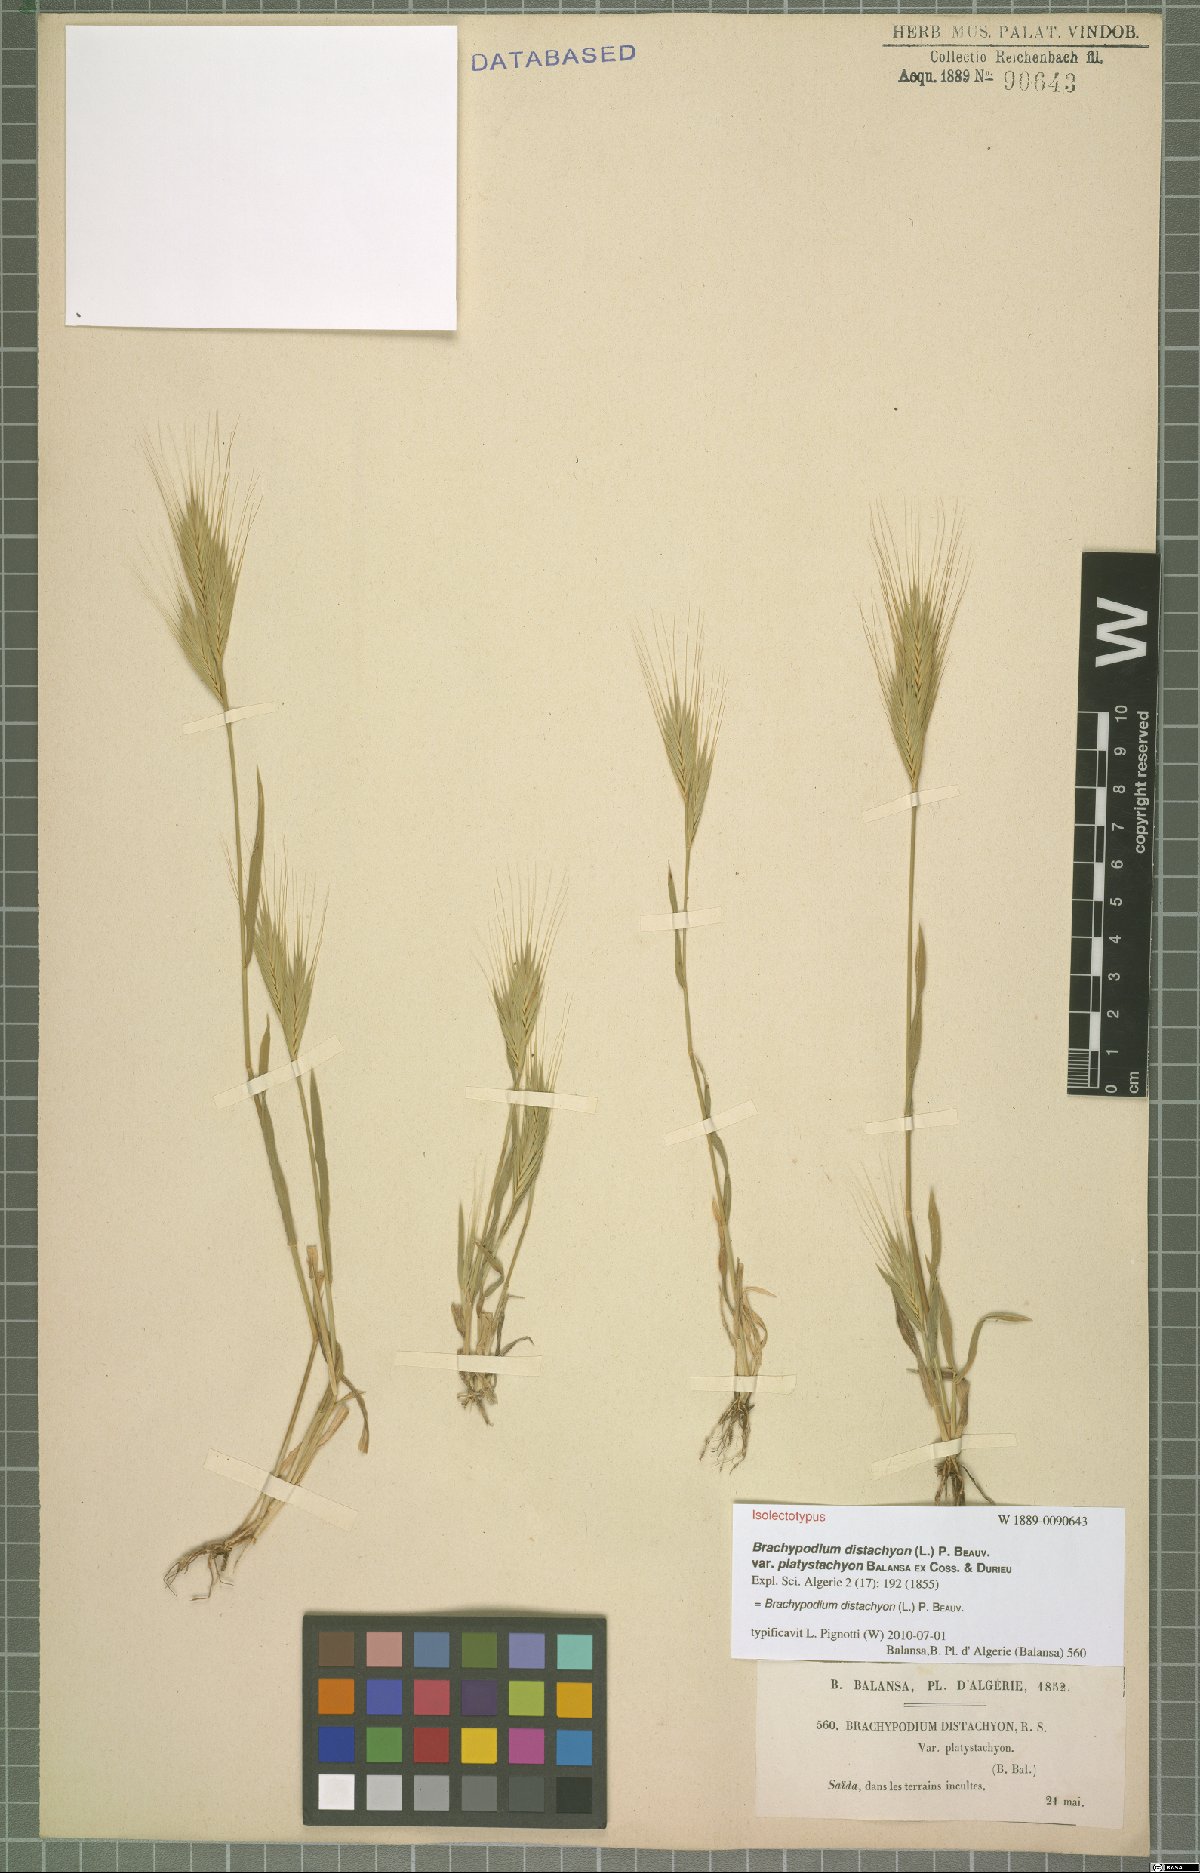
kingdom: Plantae
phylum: Tracheophyta
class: Liliopsida
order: Poales
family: Poaceae
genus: Brachypodium
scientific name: Brachypodium distachyon
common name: Stiff brome
